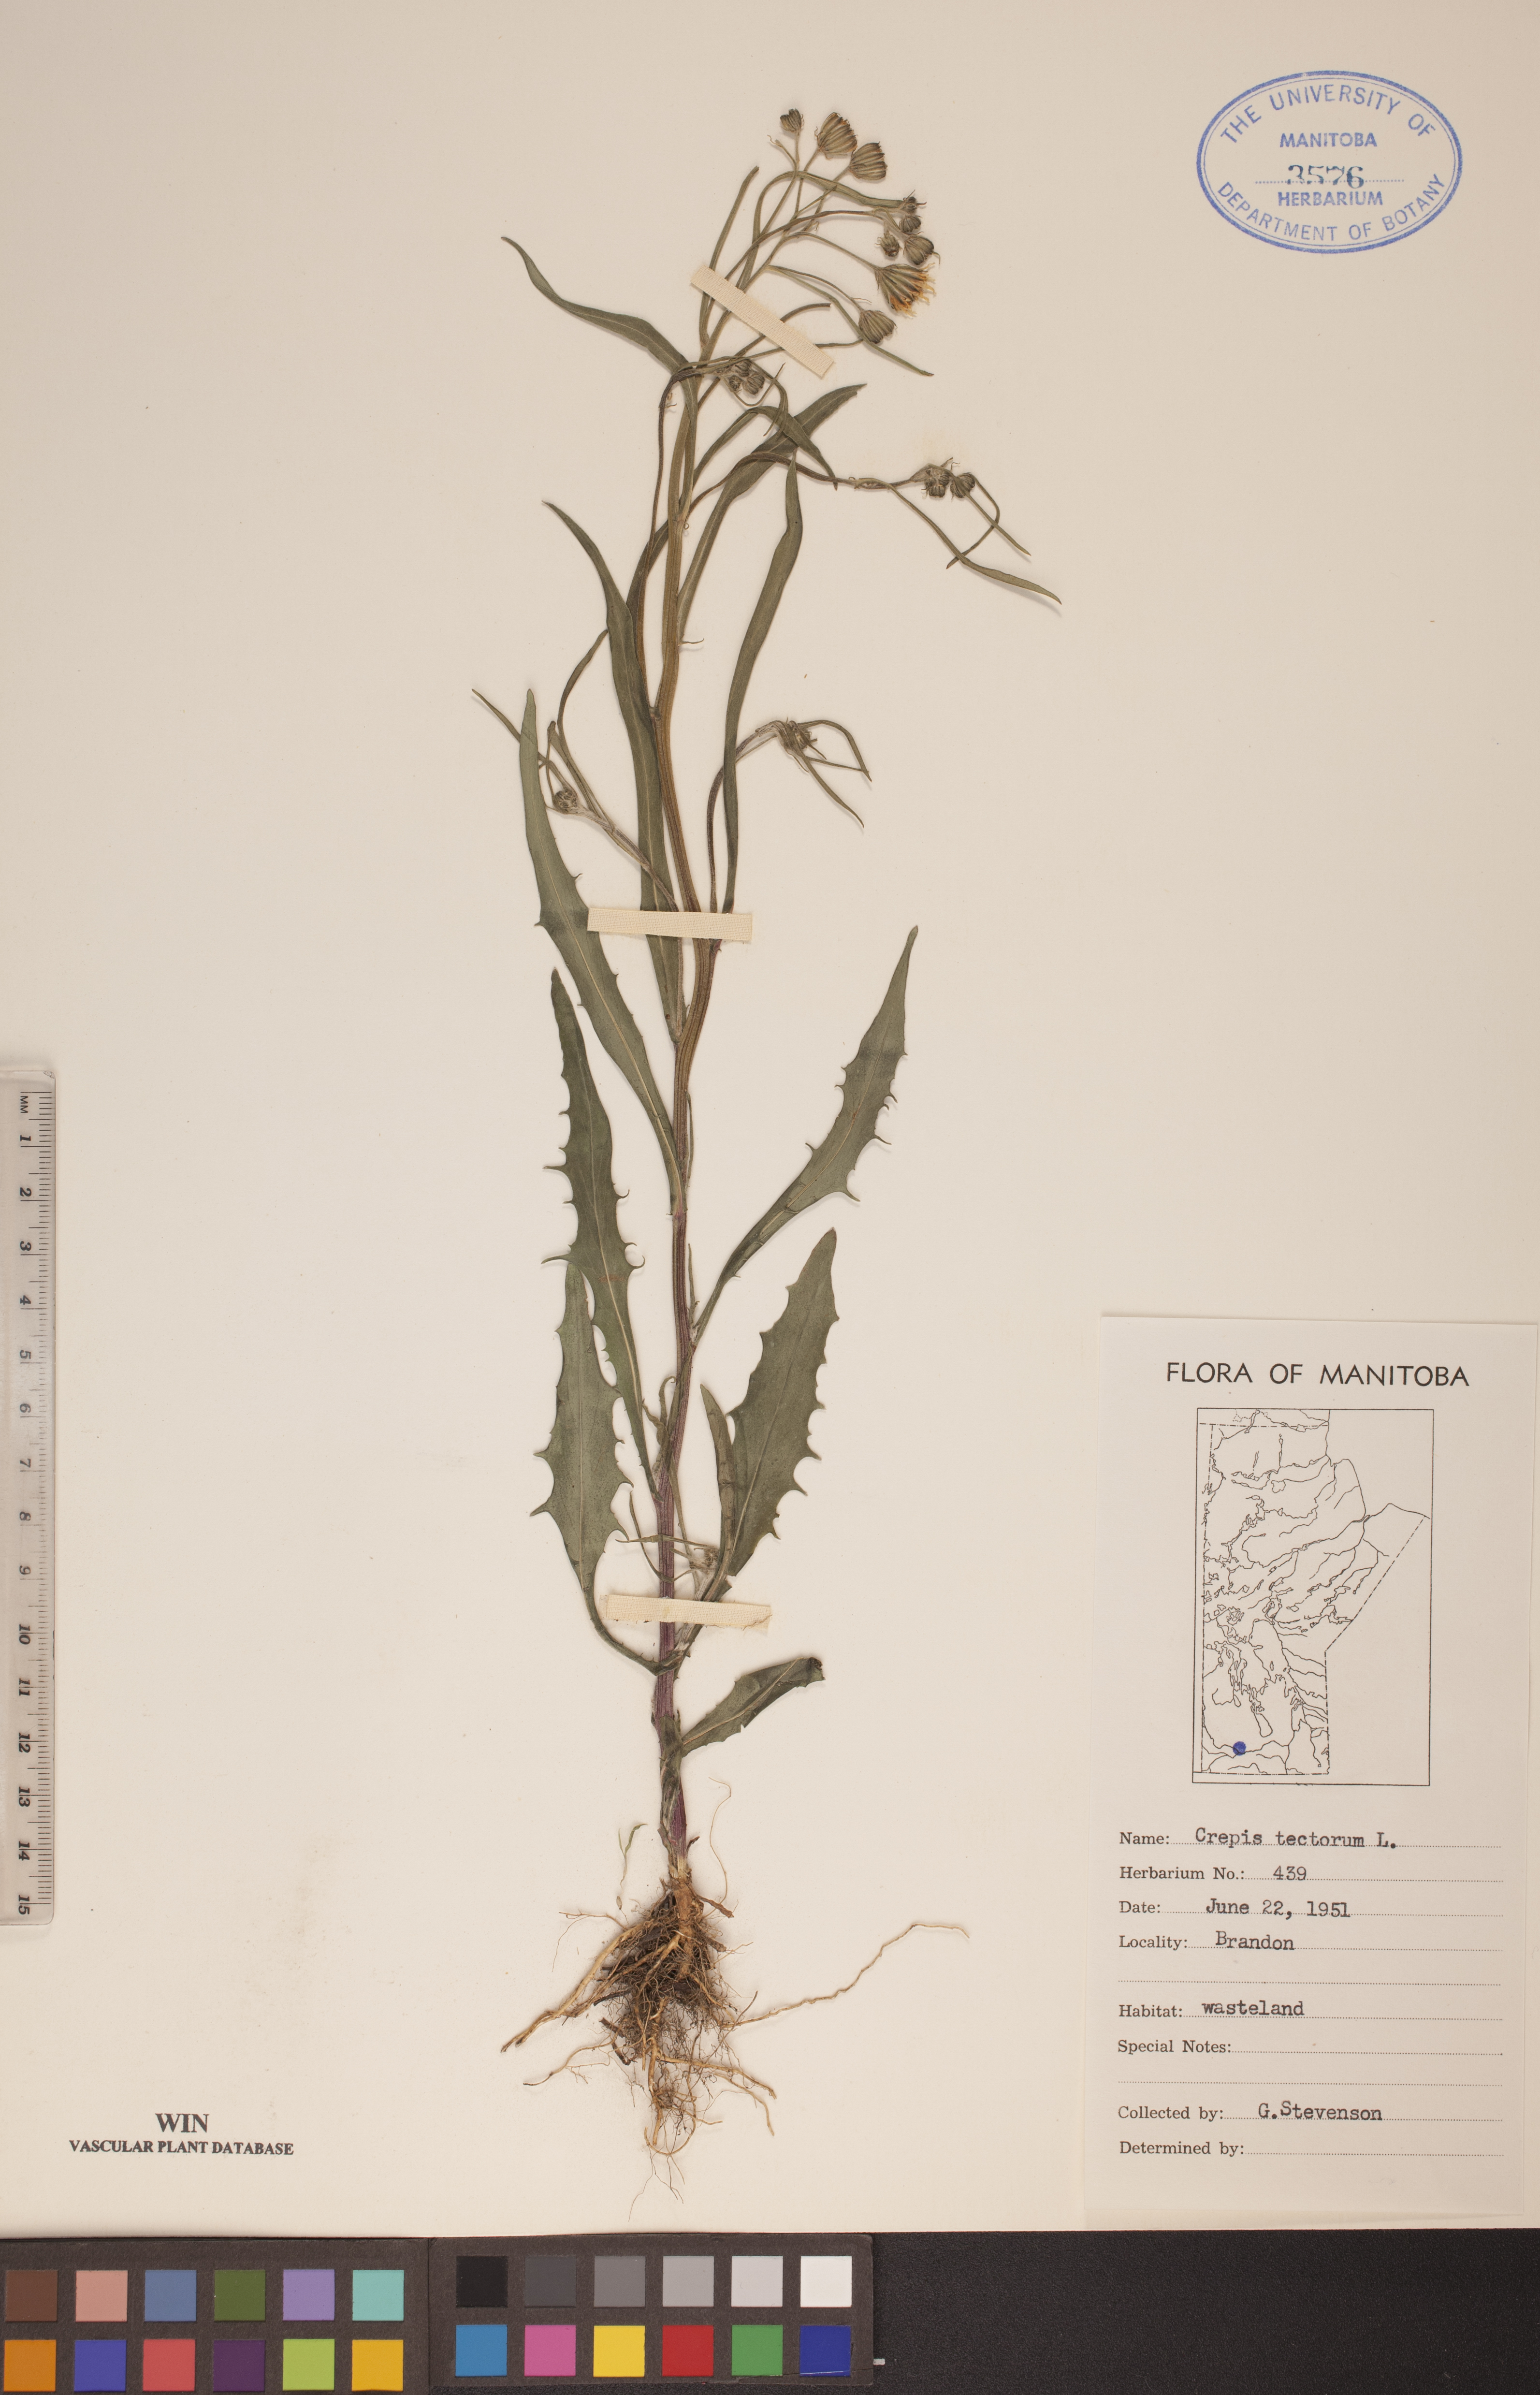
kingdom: Plantae
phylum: Tracheophyta
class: Magnoliopsida
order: Asterales
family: Asteraceae
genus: Crepis
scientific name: Crepis tectorum
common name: Narrow-leaved hawk's-beard
